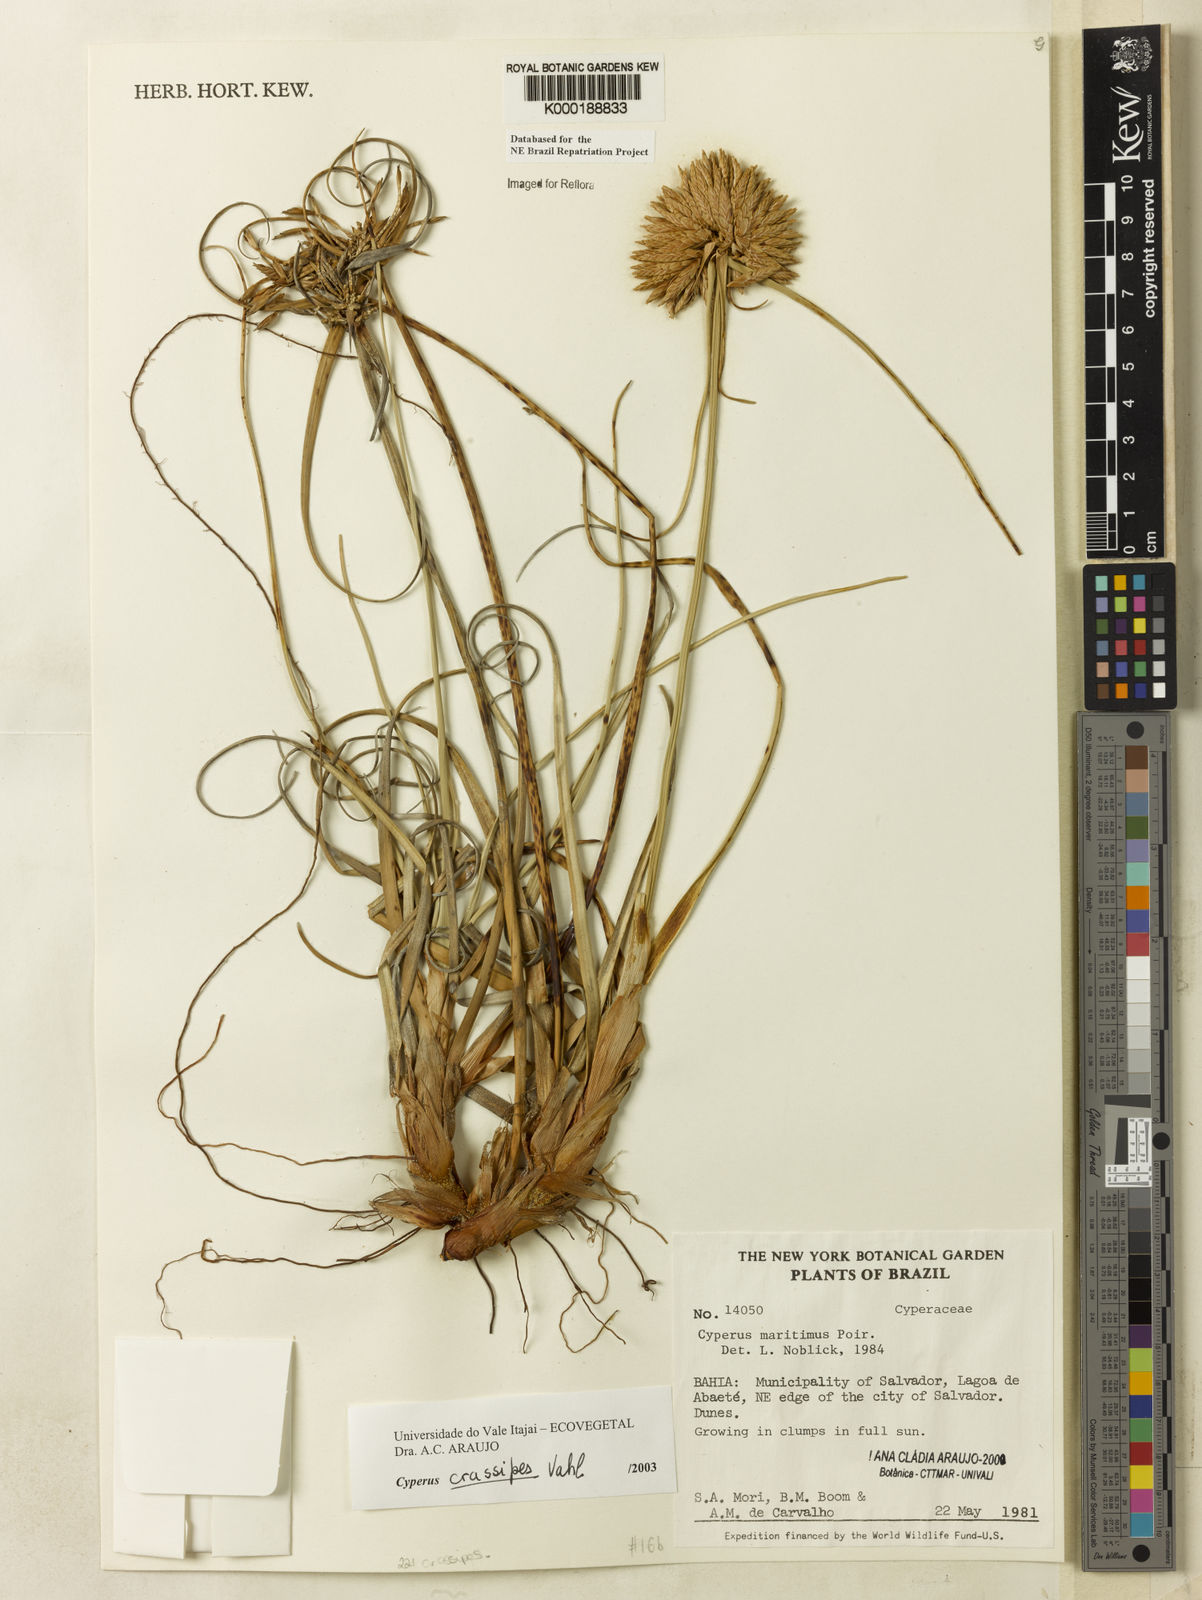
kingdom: Plantae
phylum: Tracheophyta
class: Liliopsida
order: Poales
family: Cyperaceae
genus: Cyperus
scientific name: Cyperus crassipes
